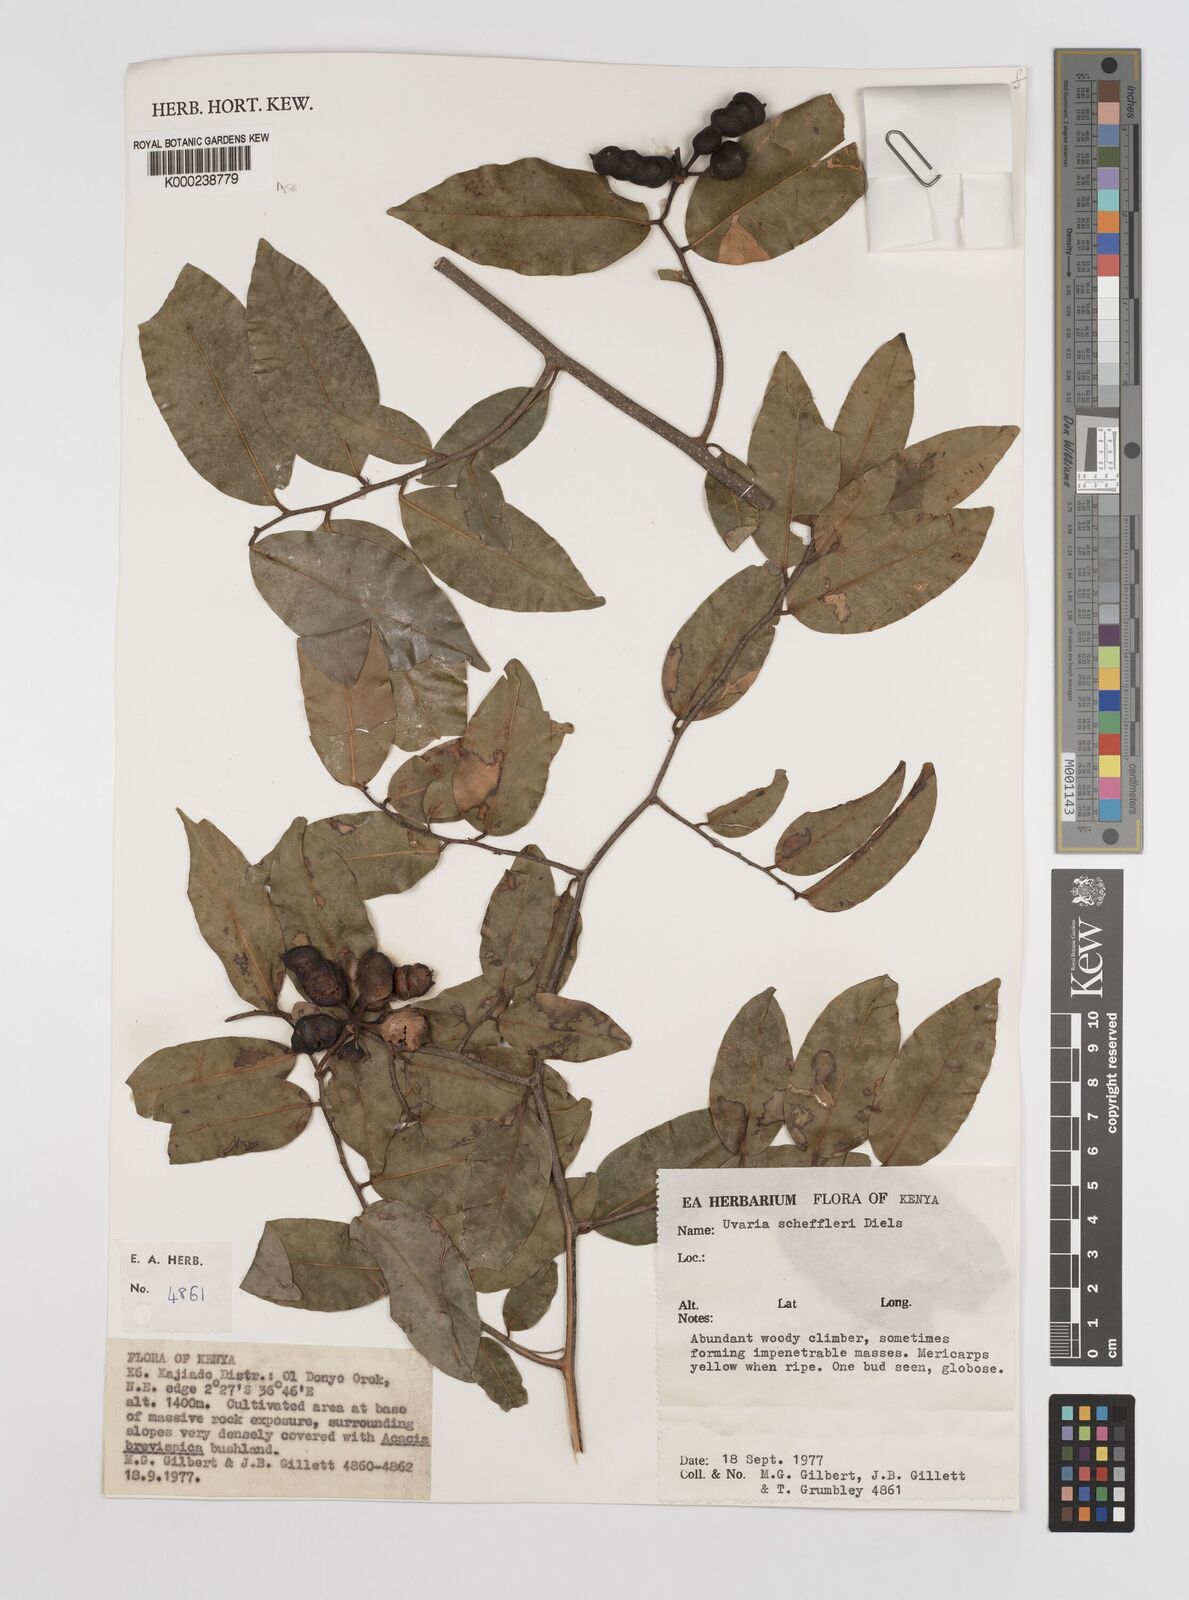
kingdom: Plantae
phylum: Tracheophyta
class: Magnoliopsida
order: Magnoliales
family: Annonaceae
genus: Uvaria
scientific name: Uvaria scheffleri
